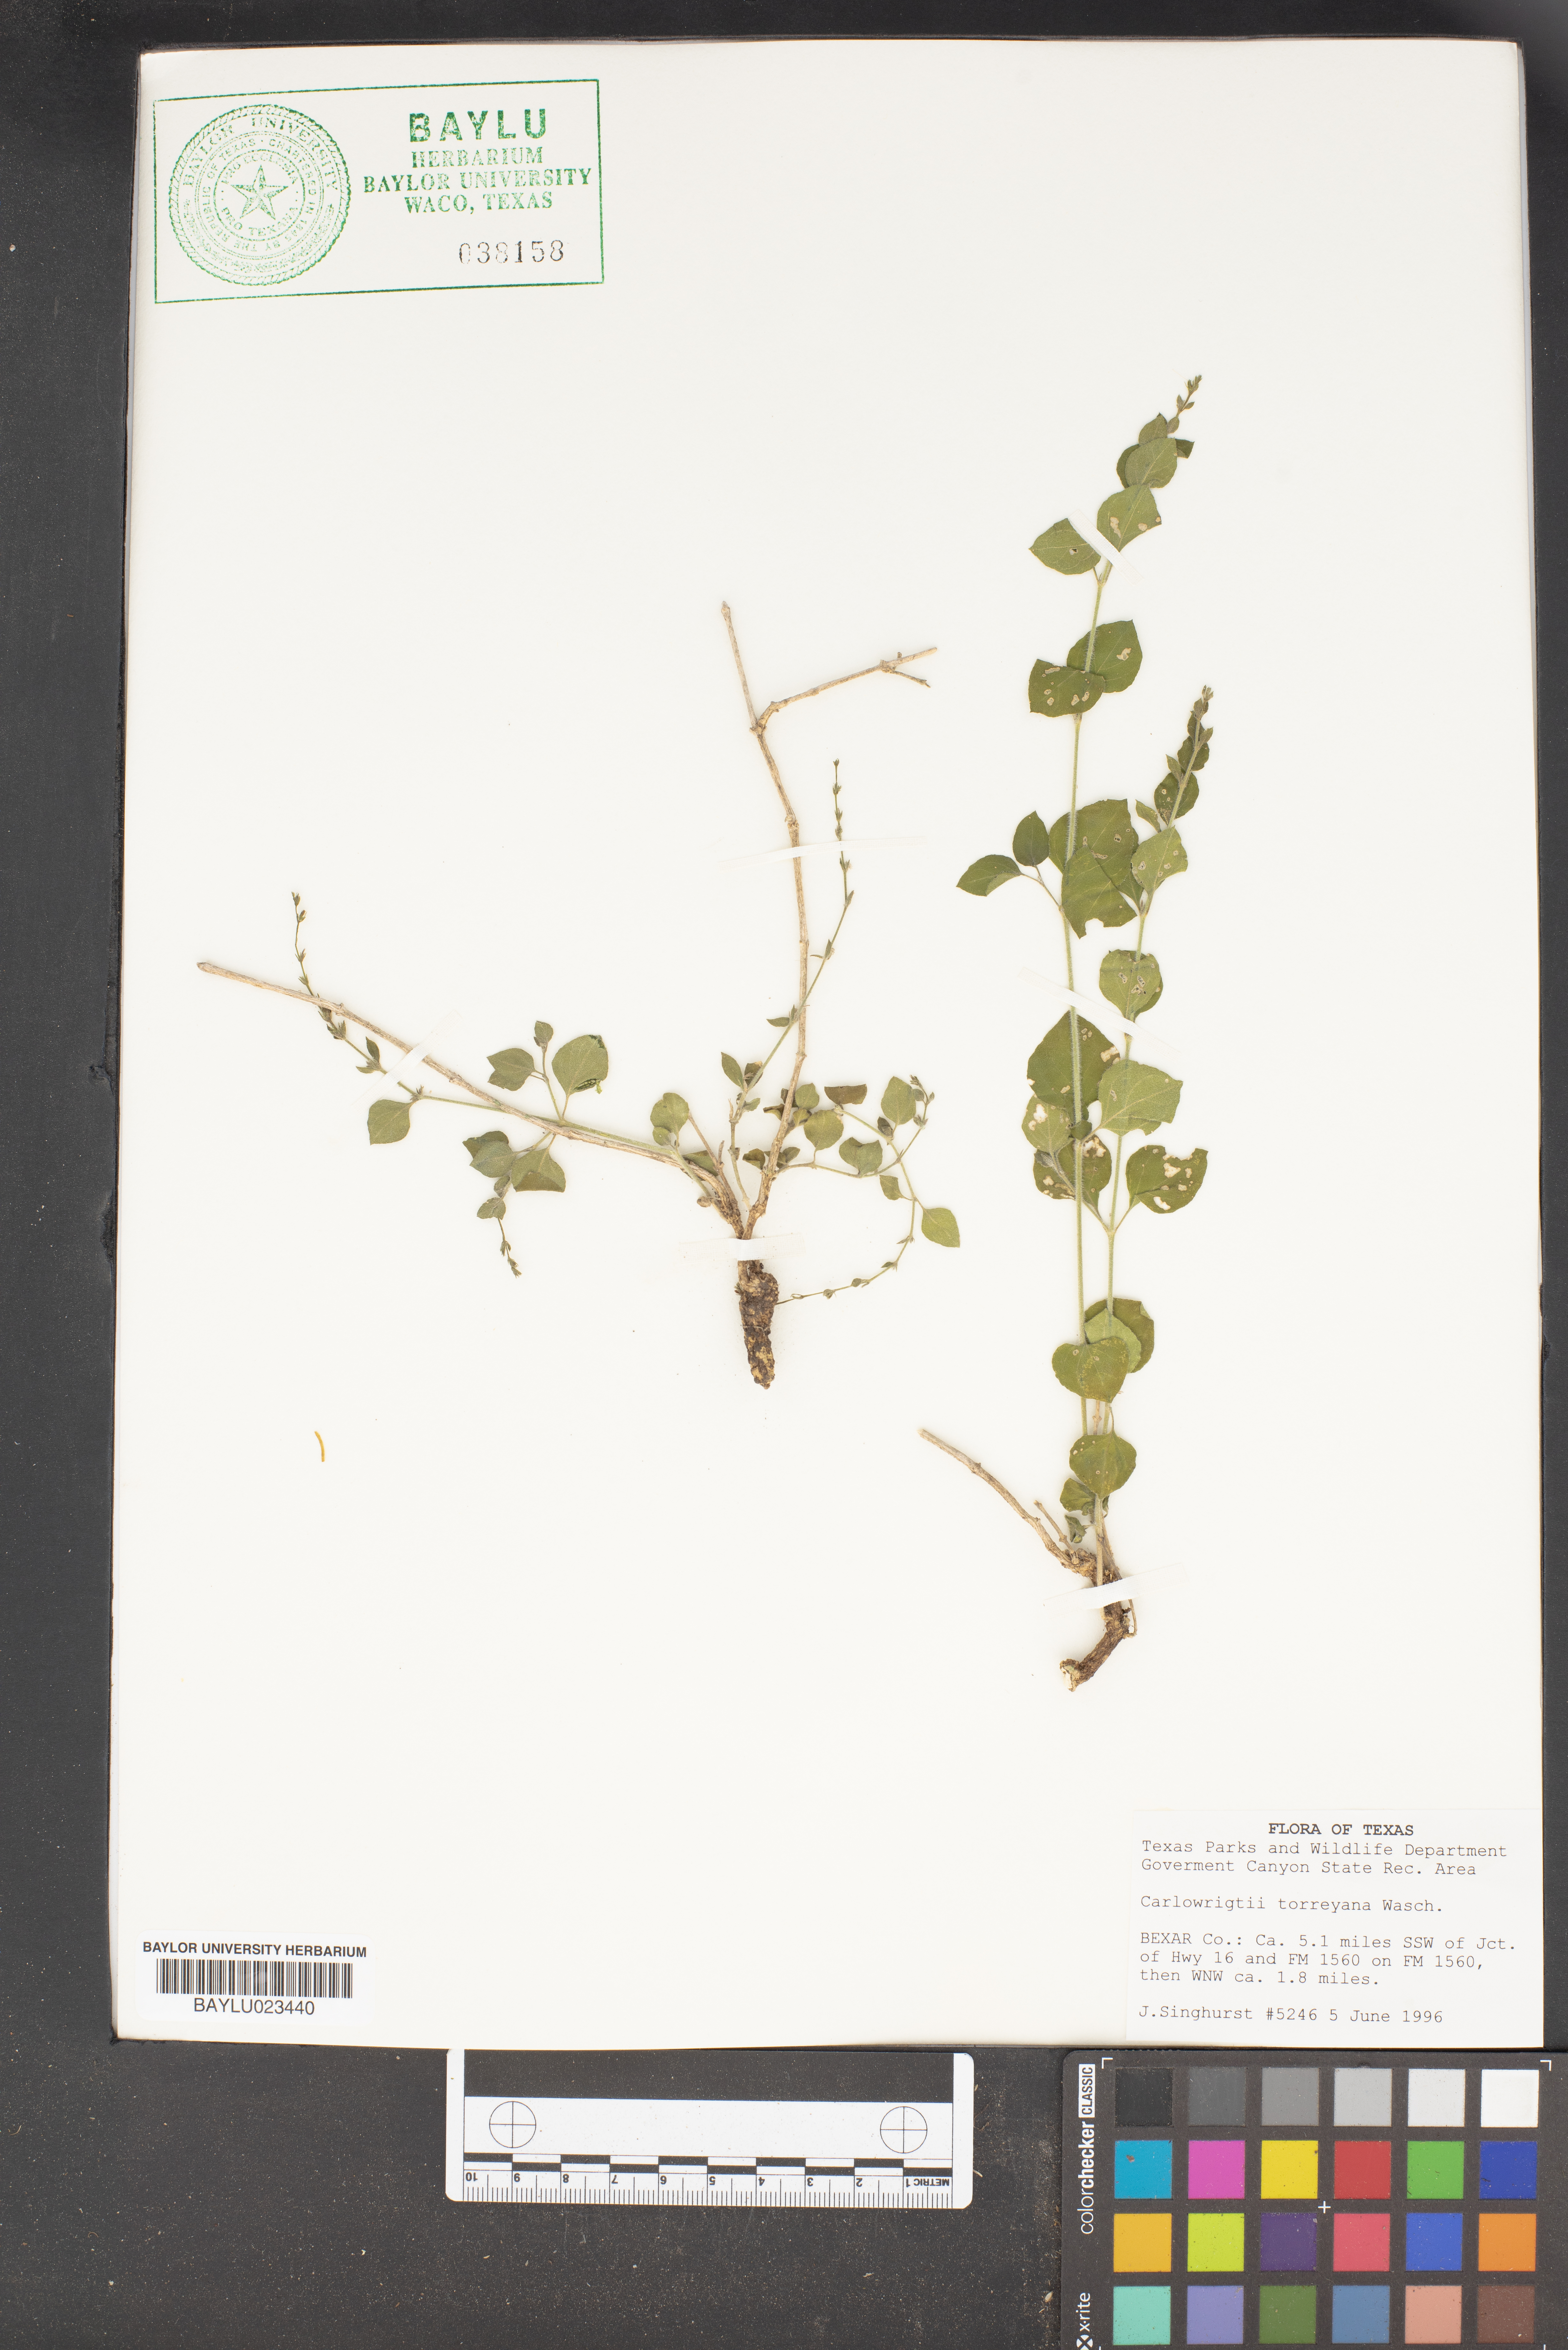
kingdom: Plantae
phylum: Tracheophyta
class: Magnoliopsida
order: Lamiales
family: Acanthaceae
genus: Carlowrightia
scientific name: Carlowrightia torreyana
